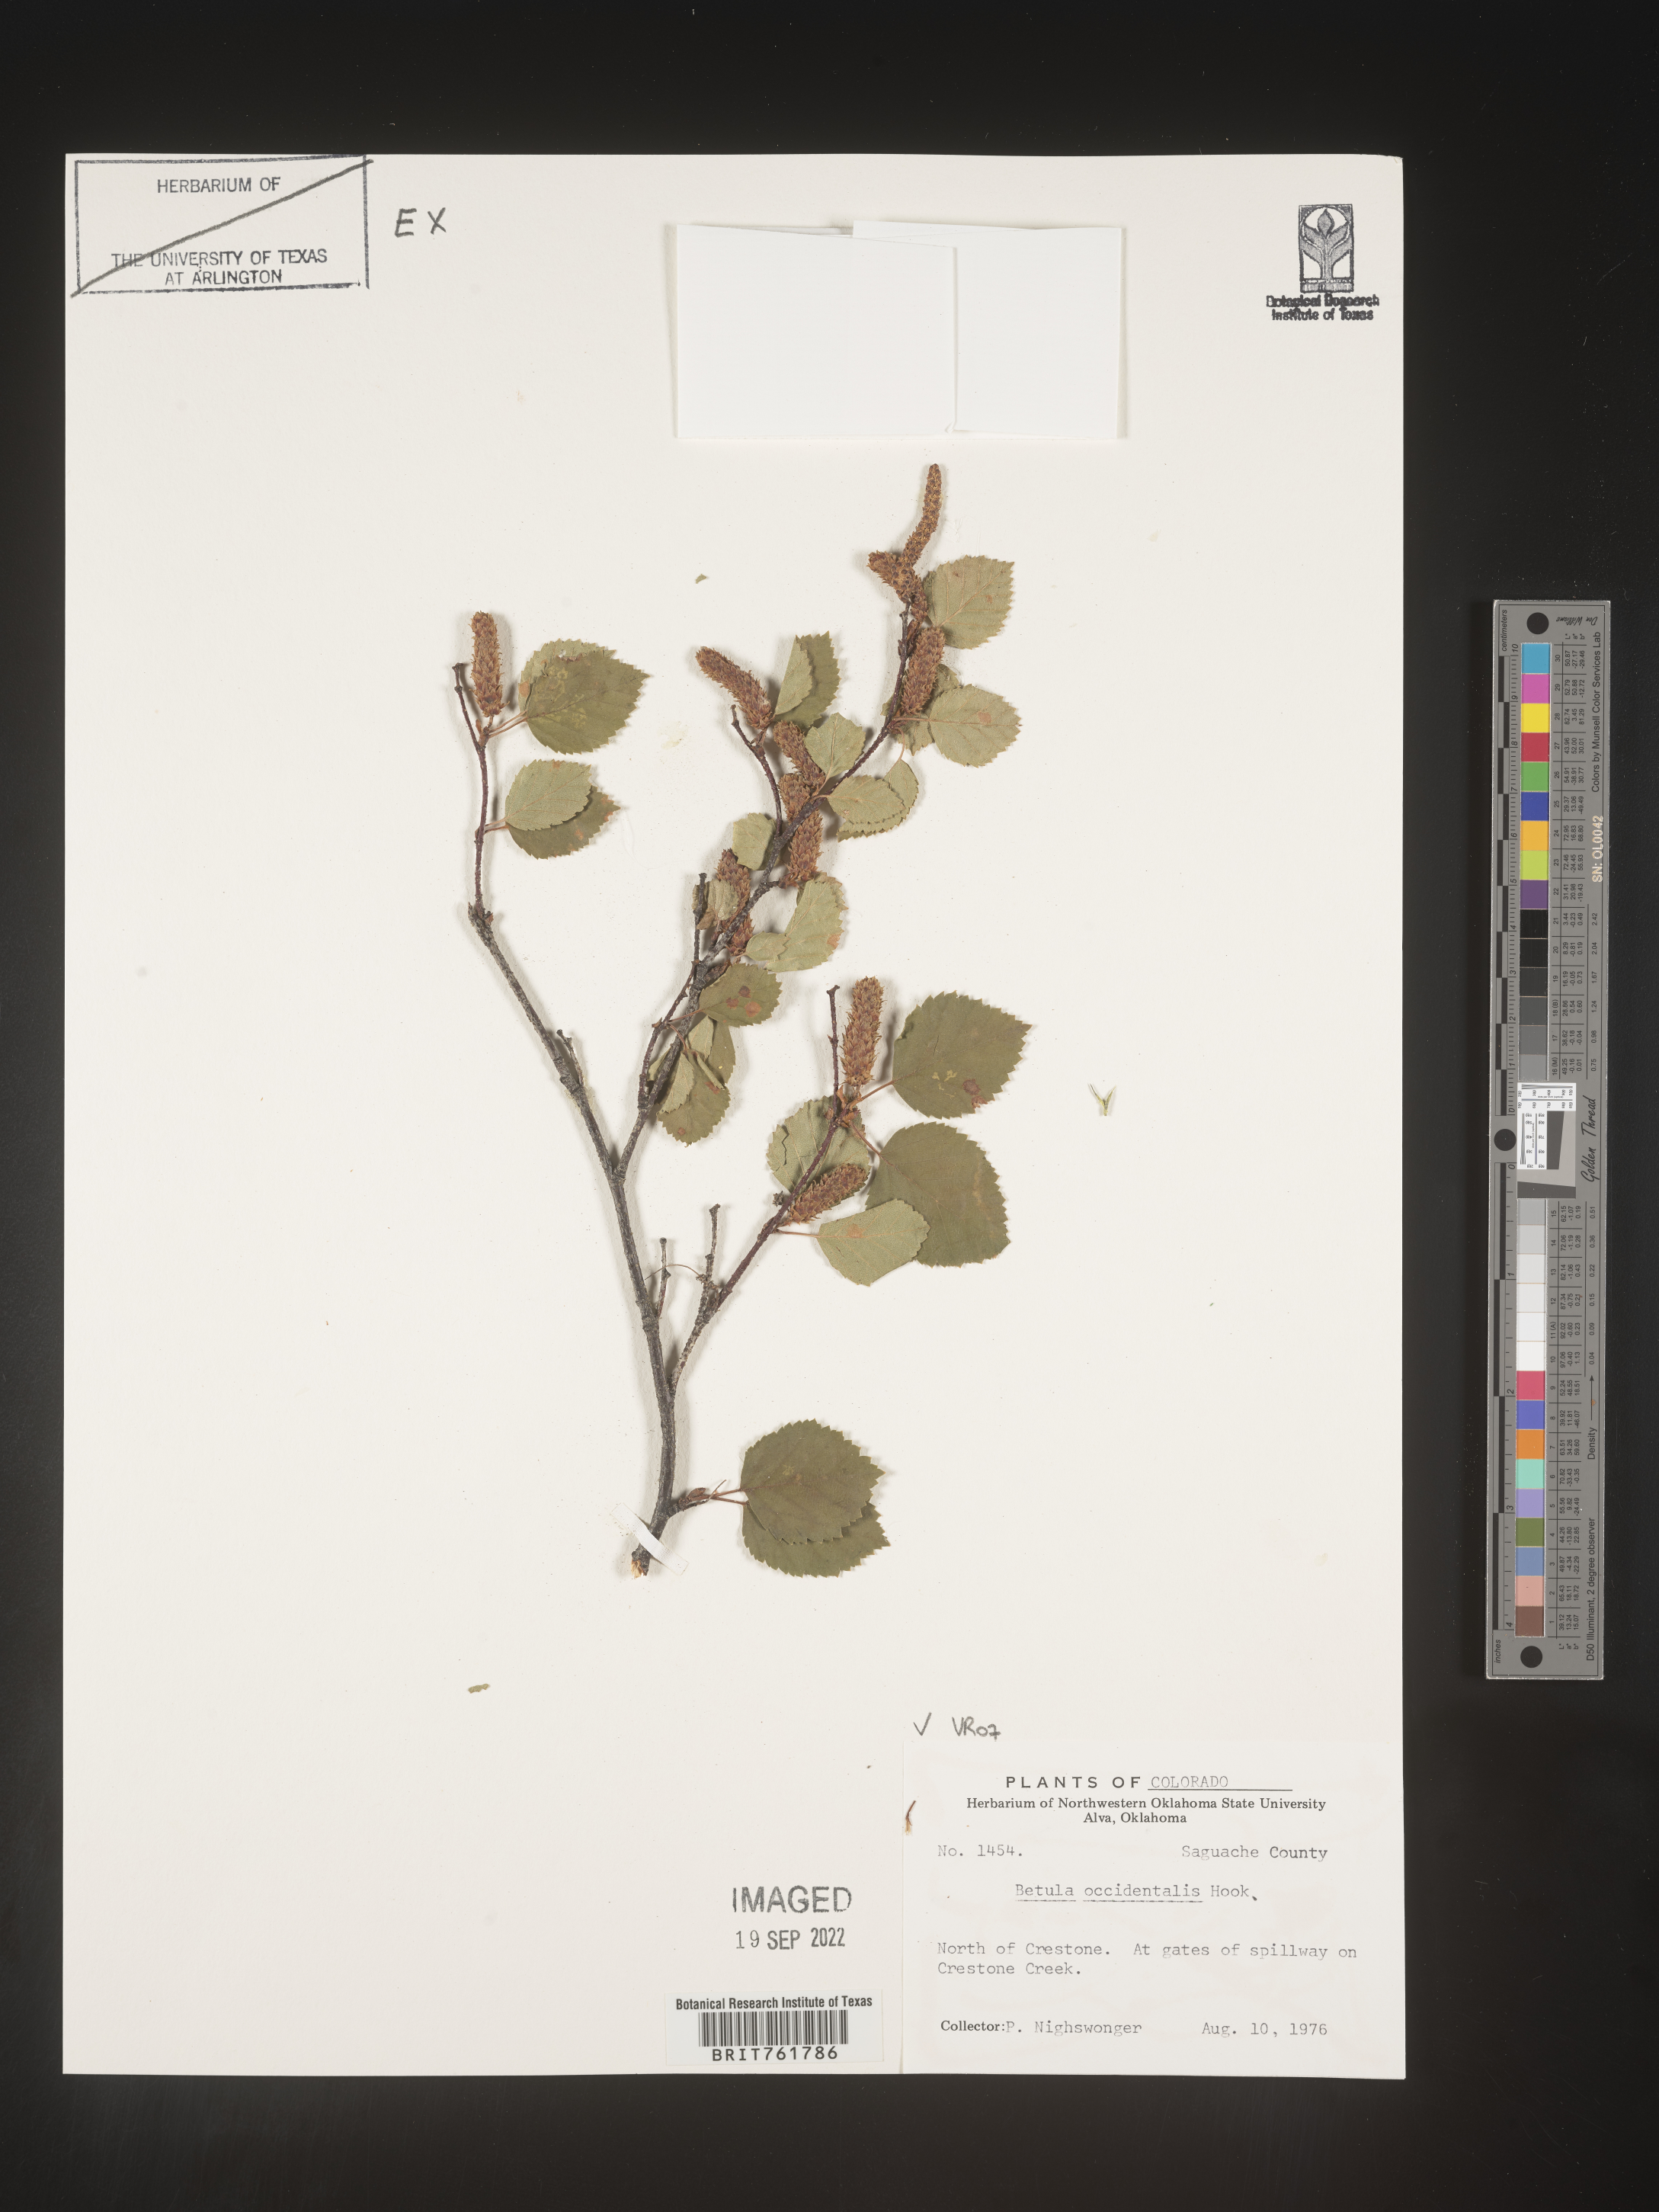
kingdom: Plantae
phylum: Tracheophyta
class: Magnoliopsida
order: Fagales
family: Betulaceae
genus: Betula
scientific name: Betula occidentalis
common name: River birch
